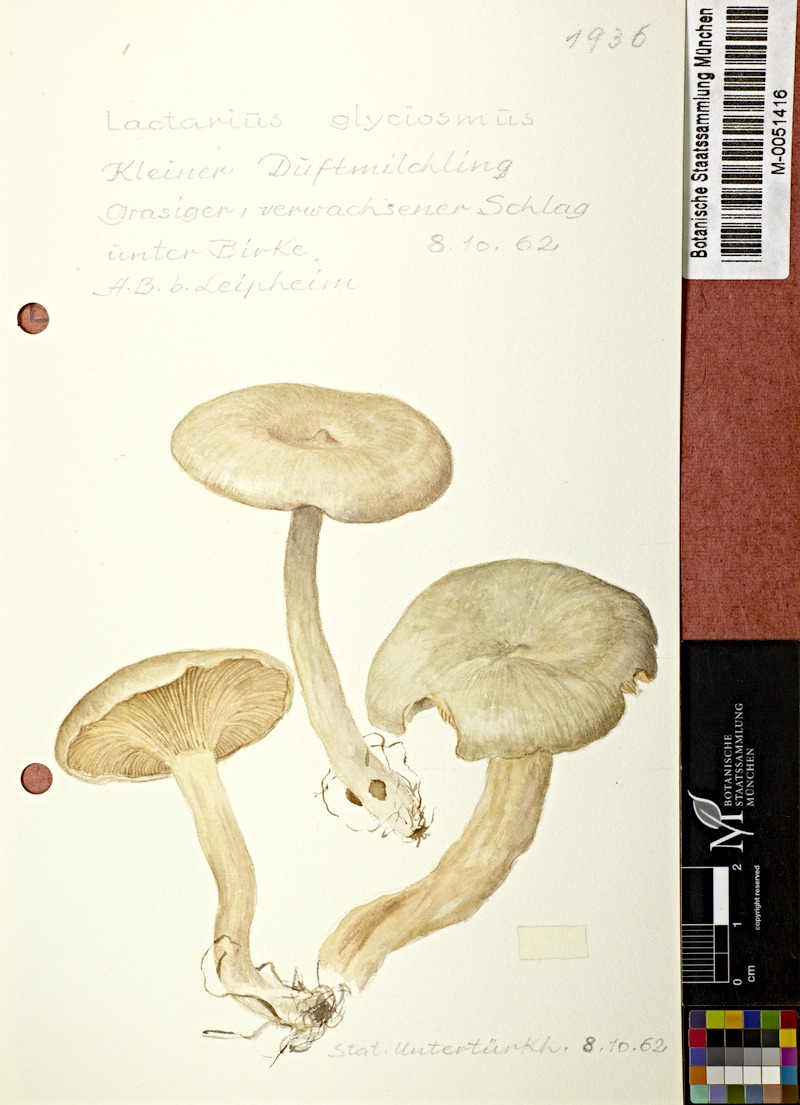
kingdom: Fungi
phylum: Basidiomycota
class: Agaricomycetes
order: Russulales
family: Russulaceae
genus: Lactarius
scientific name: Lactarius glyciosmus
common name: Coconut milkcap
